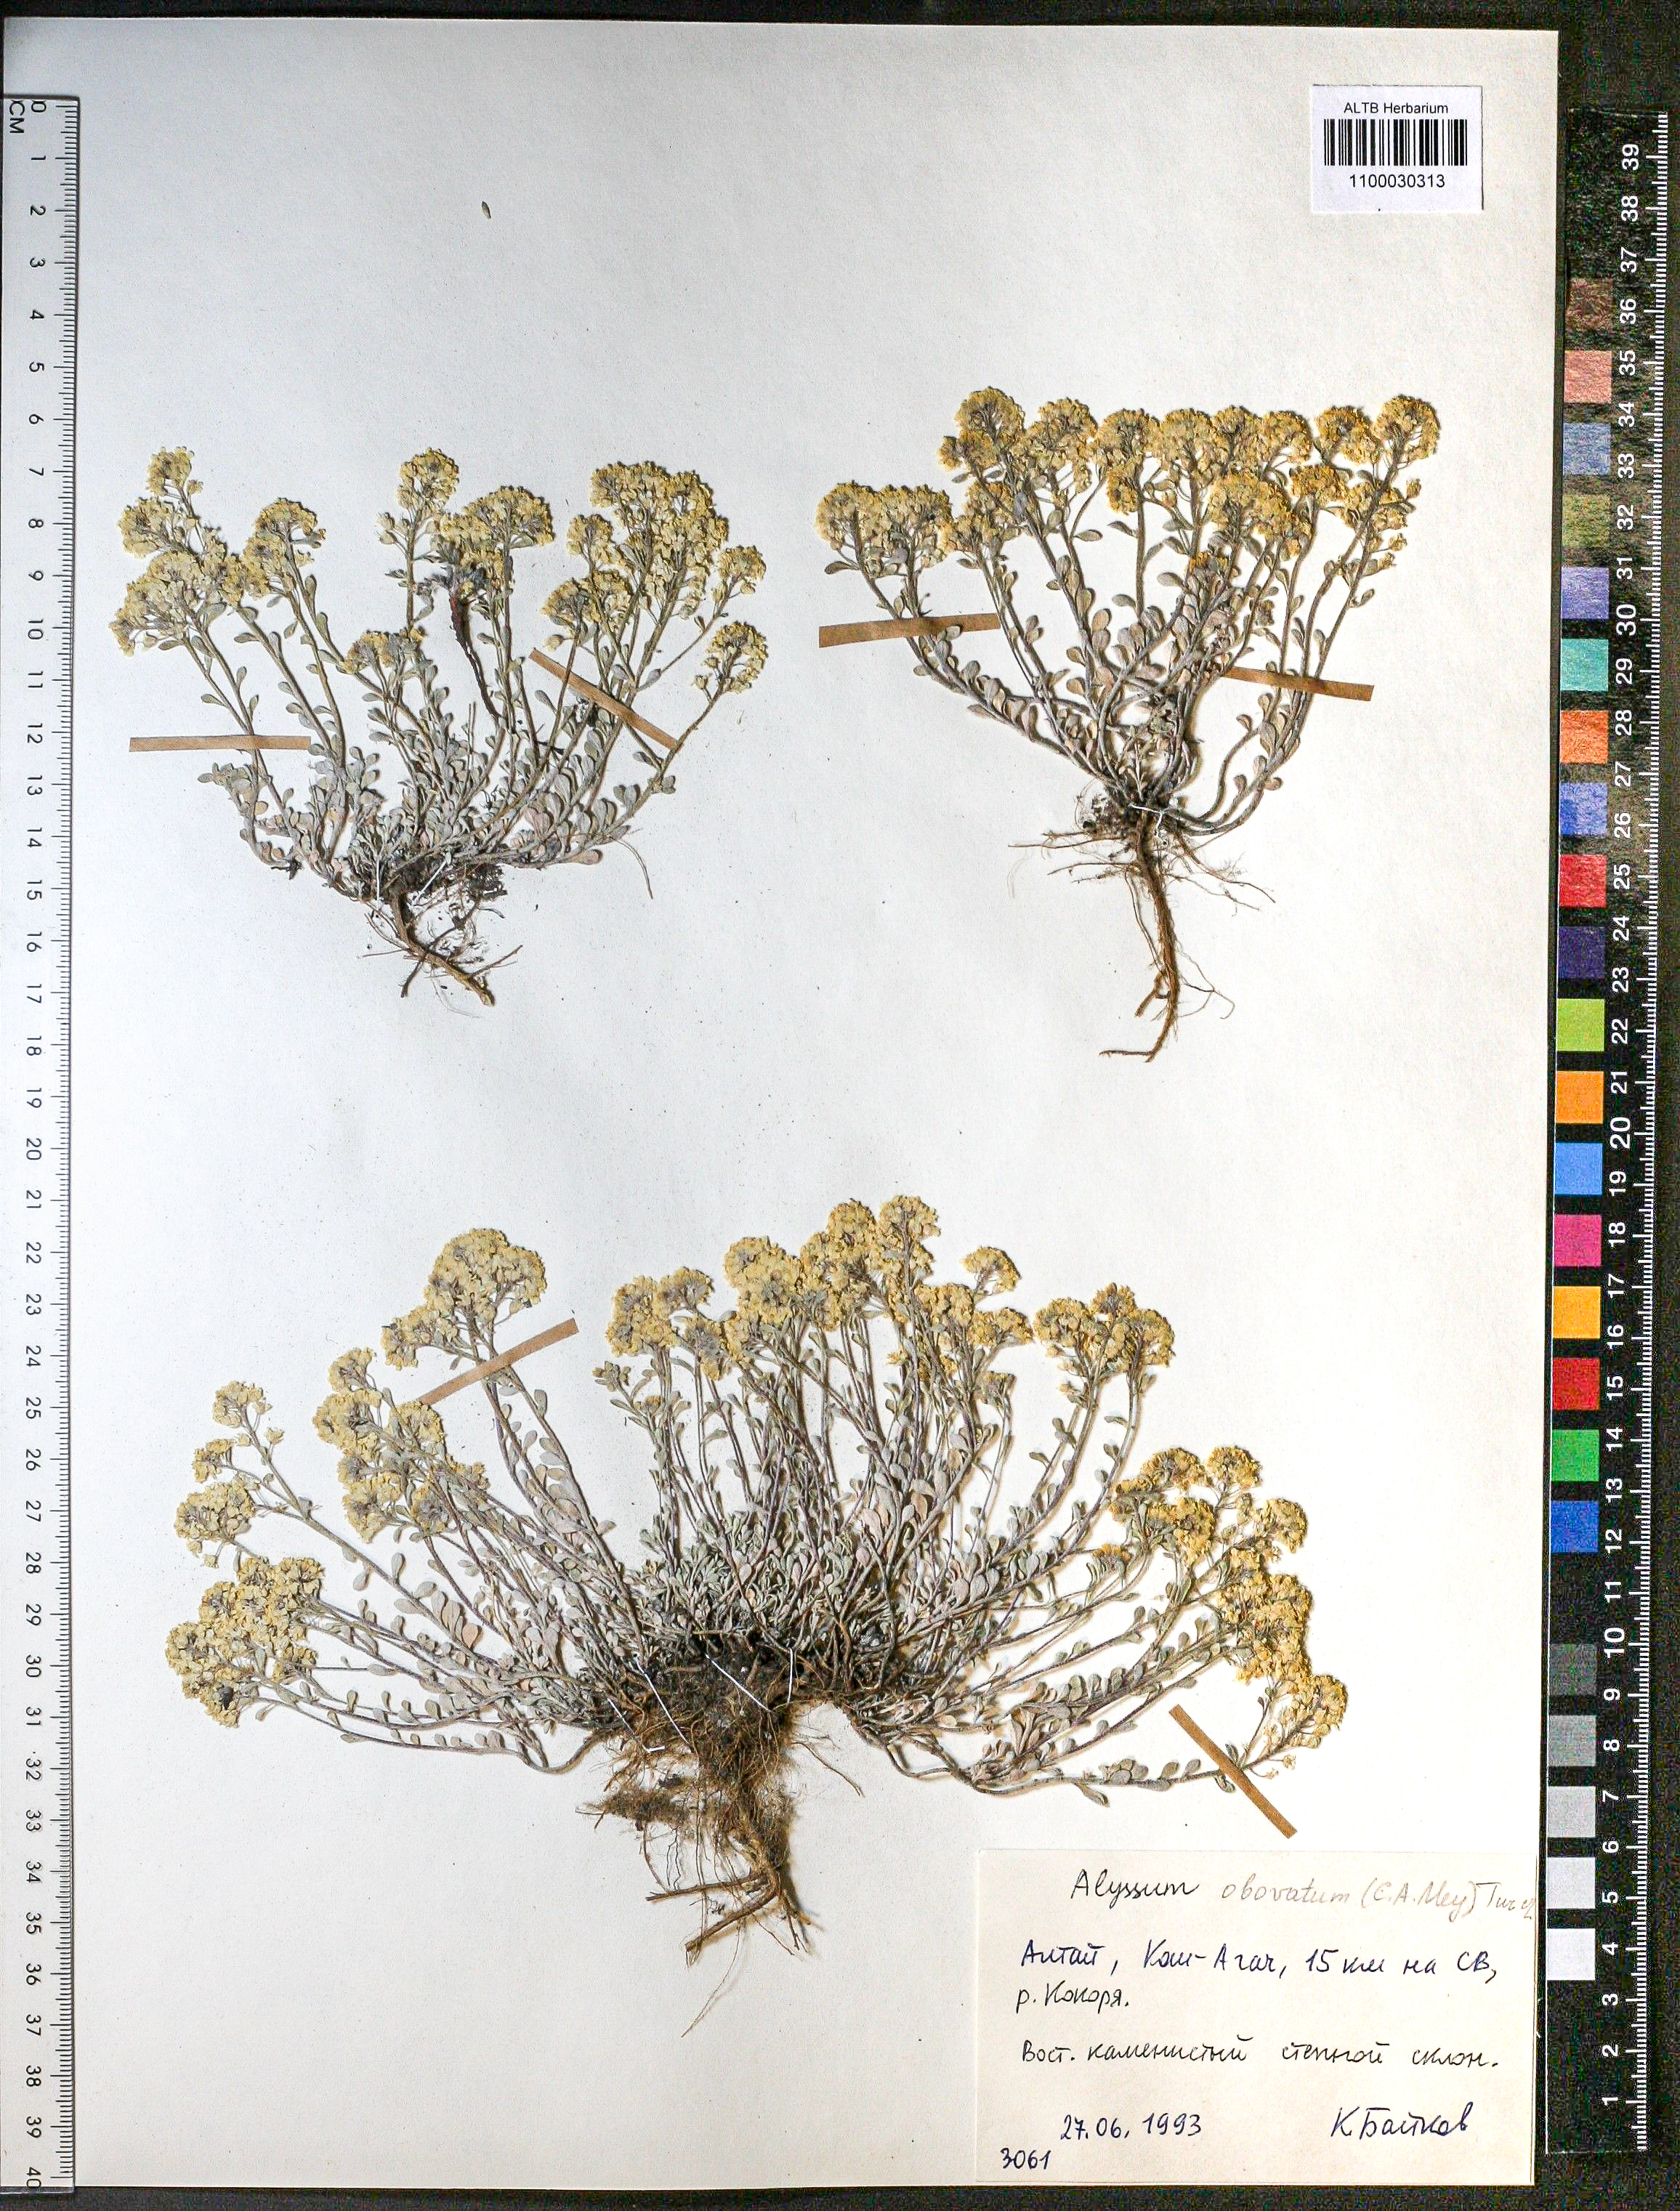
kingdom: Plantae
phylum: Tracheophyta
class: Magnoliopsida
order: Brassicales
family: Brassicaceae
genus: Odontarrhena
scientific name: Odontarrhena obovata
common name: American alyssum
